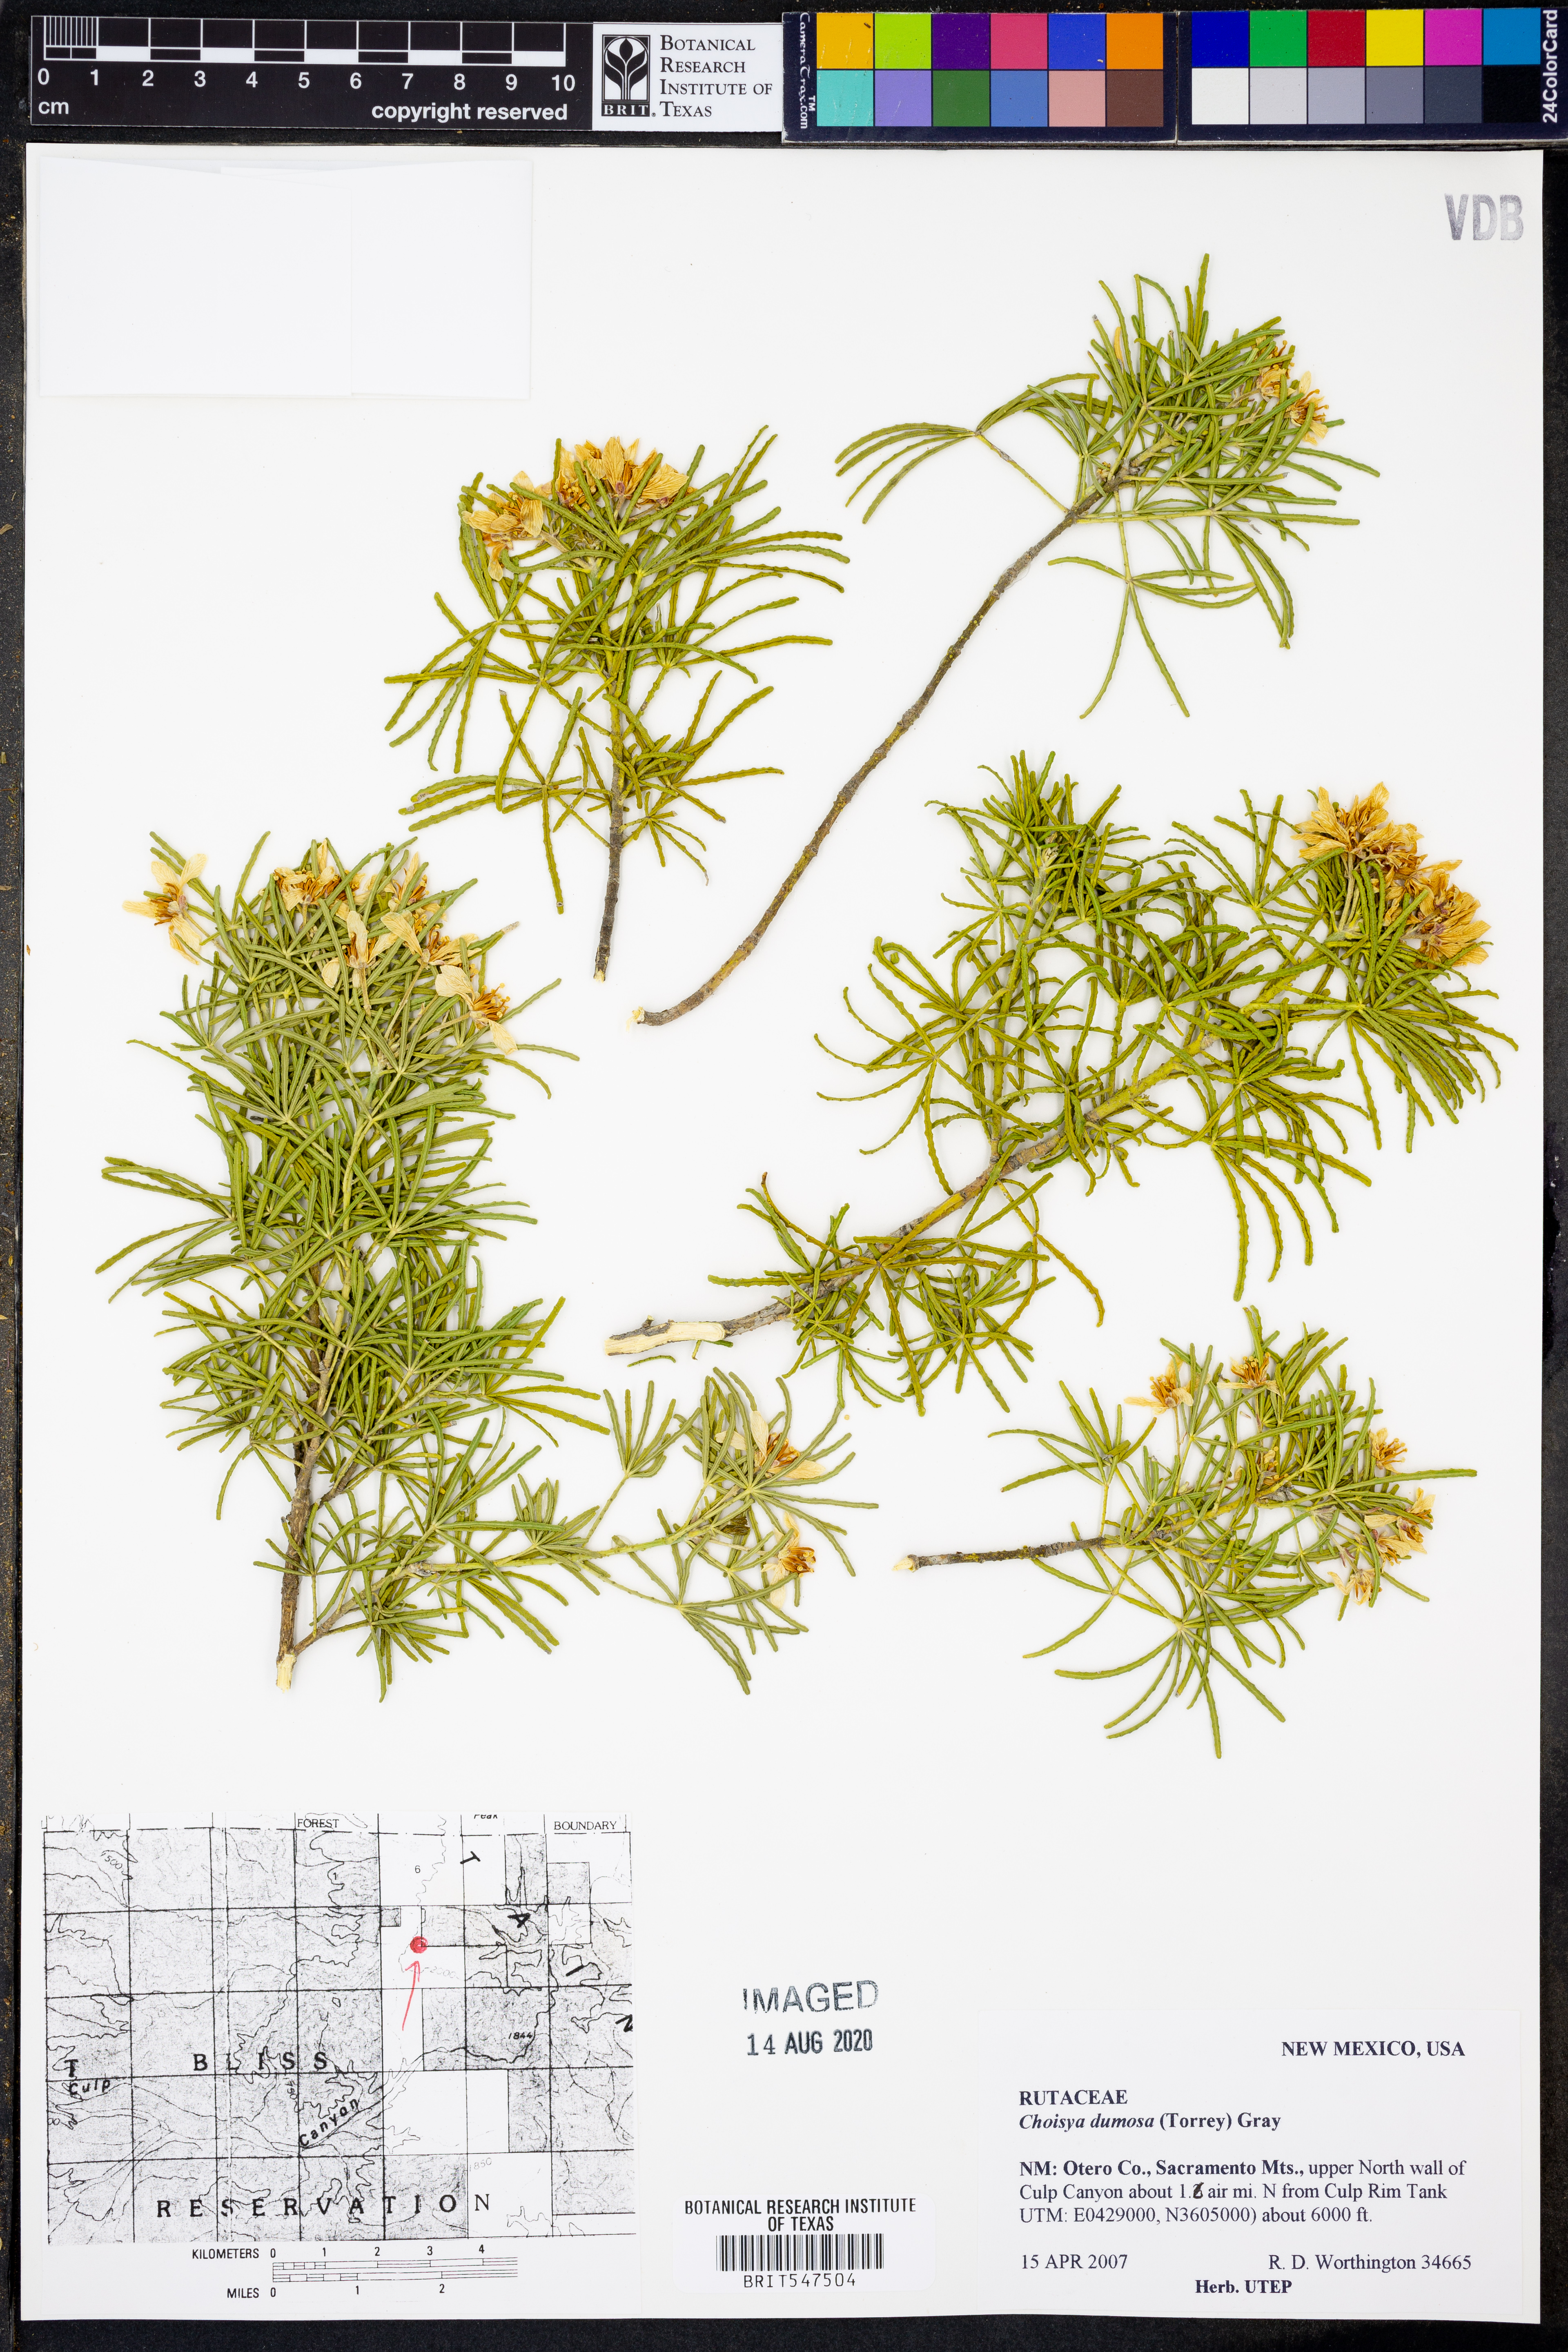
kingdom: Plantae
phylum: Tracheophyta
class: Magnoliopsida
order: Sapindales
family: Rutaceae
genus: Choisya
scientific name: Choisya dumosa
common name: Mexican-orange
